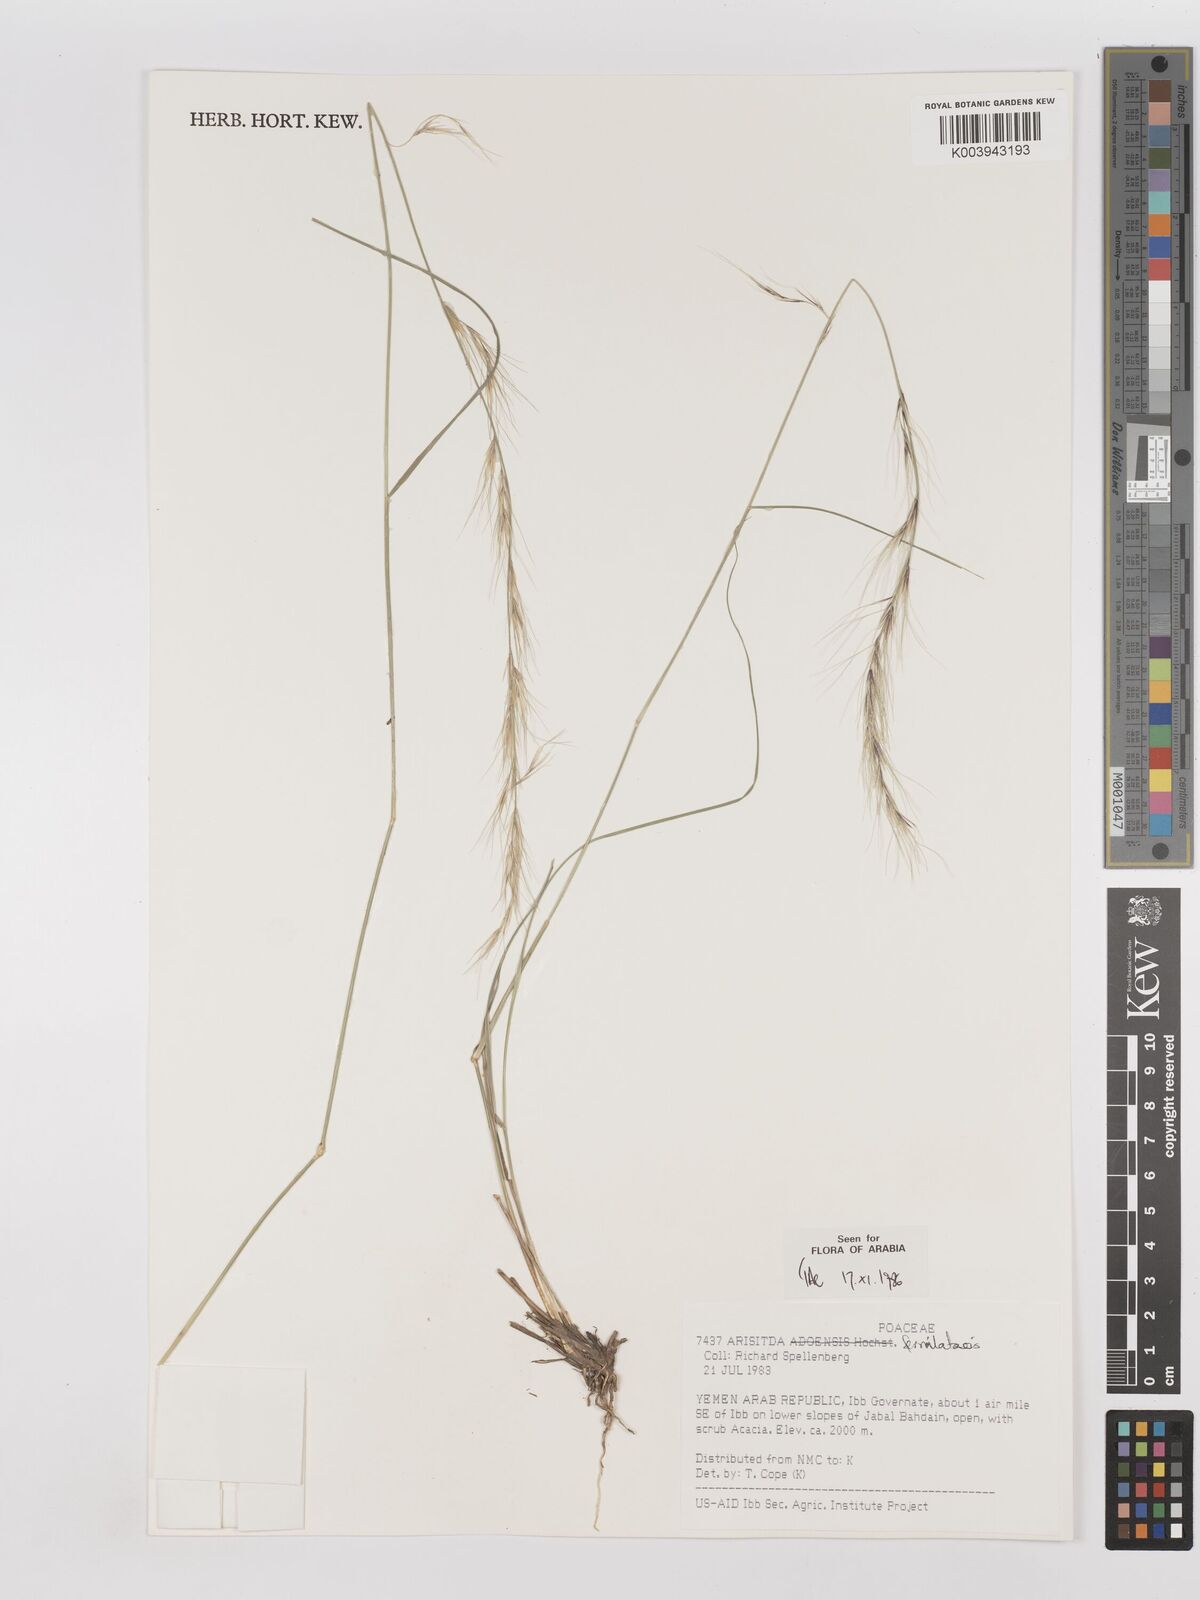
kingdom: Plantae
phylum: Tracheophyta
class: Liliopsida
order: Poales
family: Poaceae
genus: Aristida
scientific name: Aristida ferrilateris
